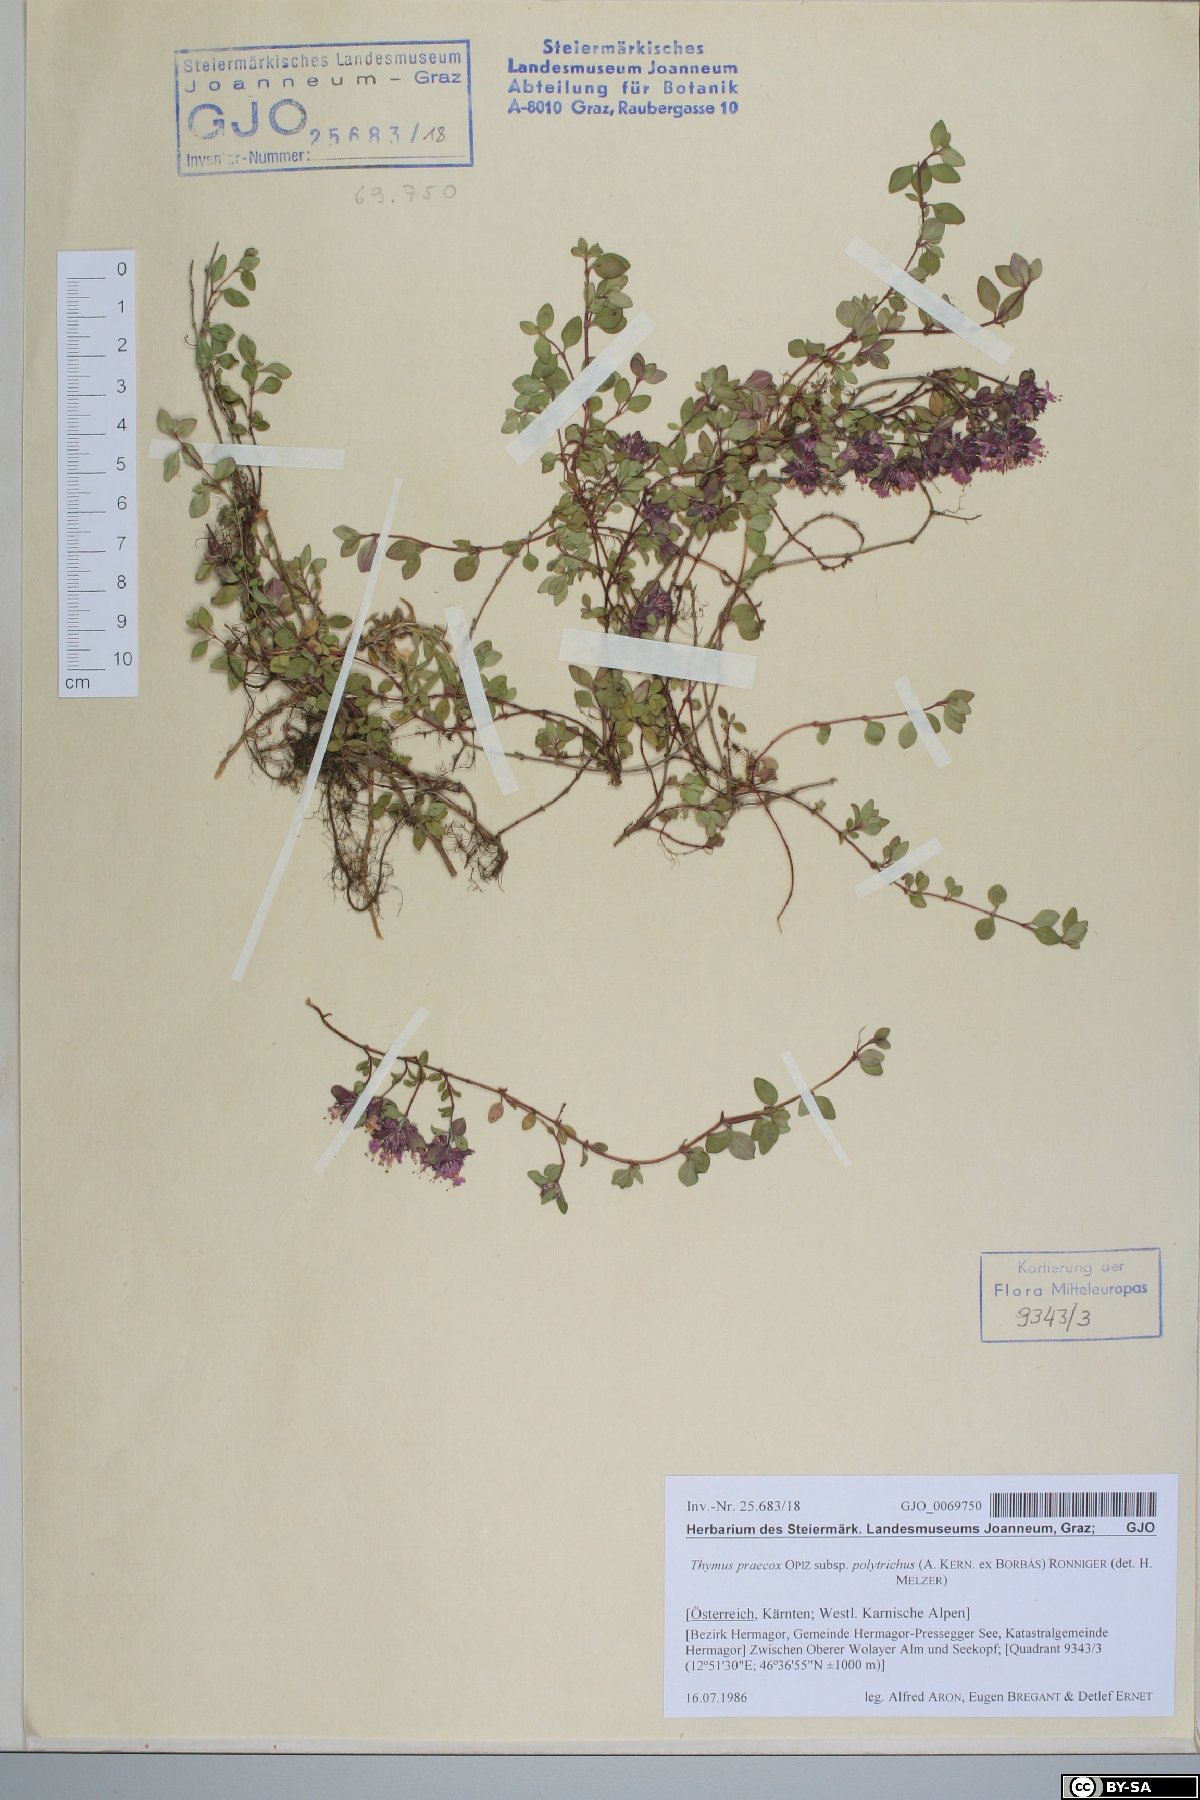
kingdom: Plantae
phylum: Tracheophyta
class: Magnoliopsida
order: Lamiales
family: Lamiaceae
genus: Thymus
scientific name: Thymus praecox
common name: Wild thyme
